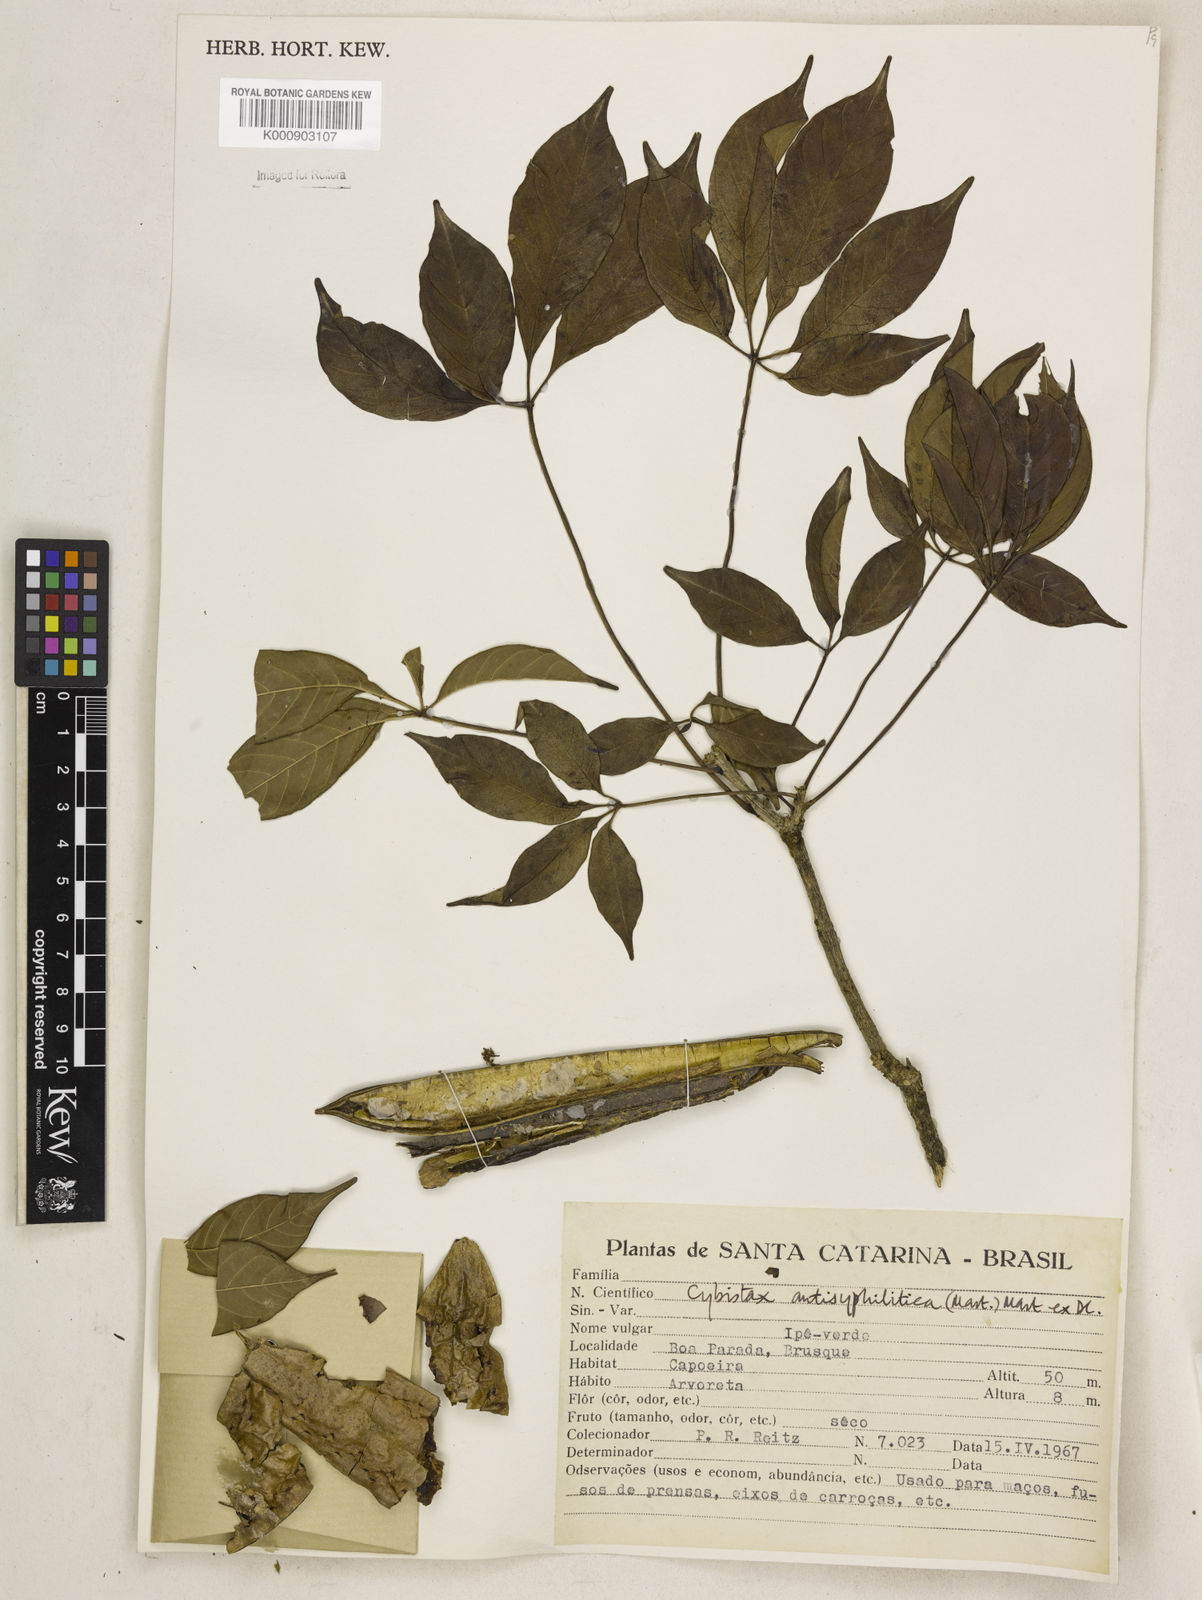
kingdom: Plantae
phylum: Tracheophyta
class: Magnoliopsida
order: Lamiales
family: Bignoniaceae
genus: Cybistax
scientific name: Cybistax antisyphilitica
